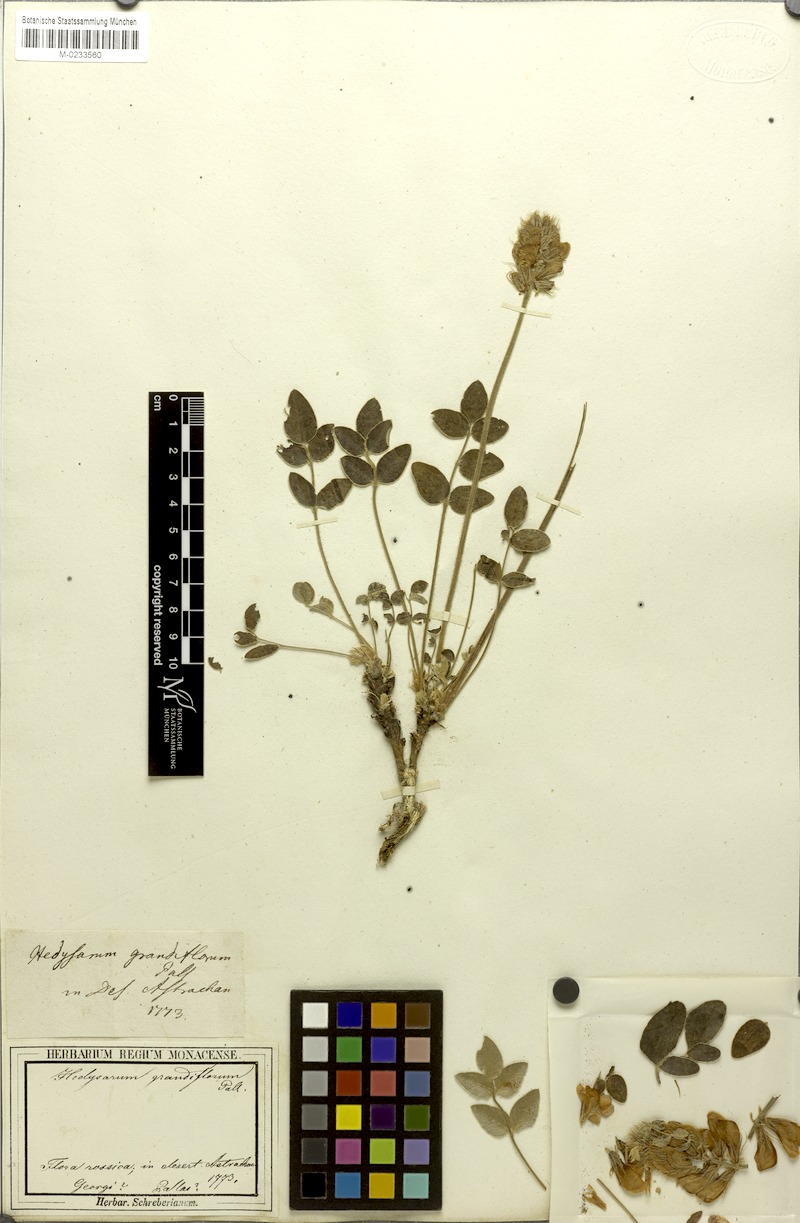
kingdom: Plantae
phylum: Tracheophyta
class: Magnoliopsida
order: Fabales
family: Fabaceae
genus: Hedysarum
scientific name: Hedysarum grandiflorum
